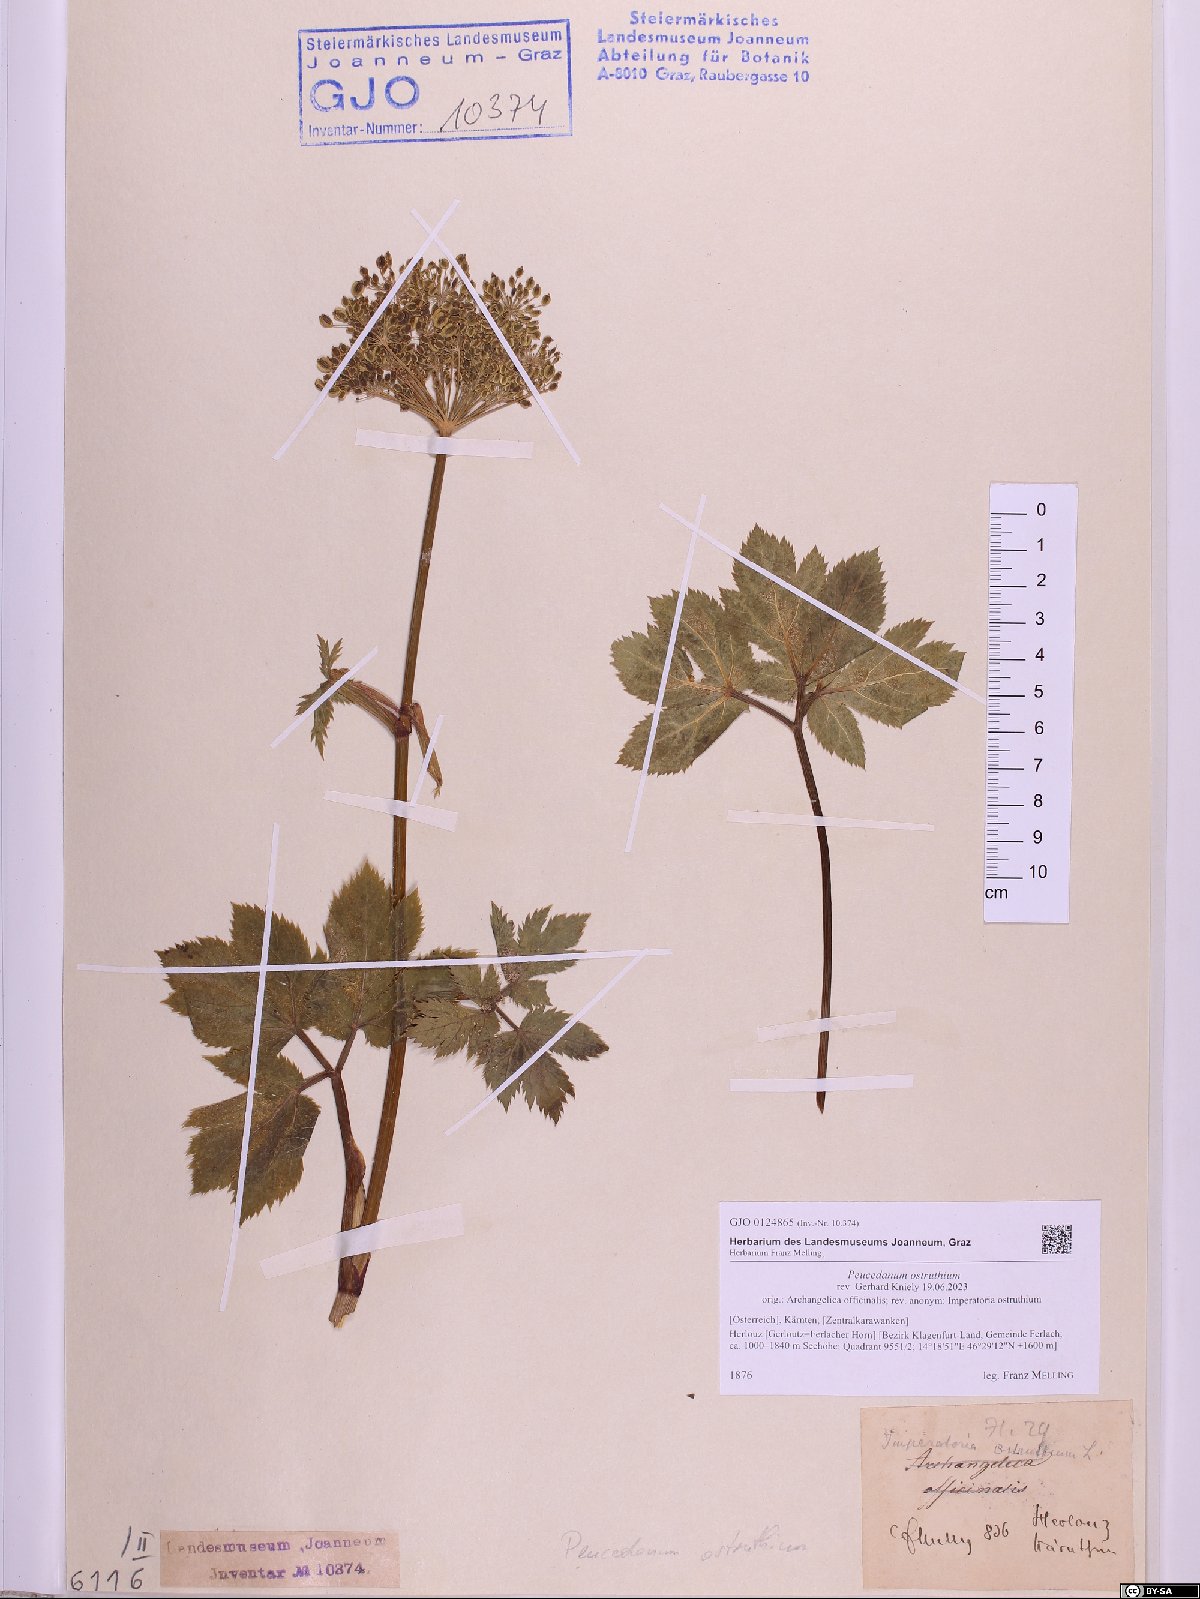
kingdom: Plantae
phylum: Tracheophyta
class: Magnoliopsida
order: Apiales
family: Apiaceae
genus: Imperatoria
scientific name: Imperatoria ostruthium
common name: Masterwort
